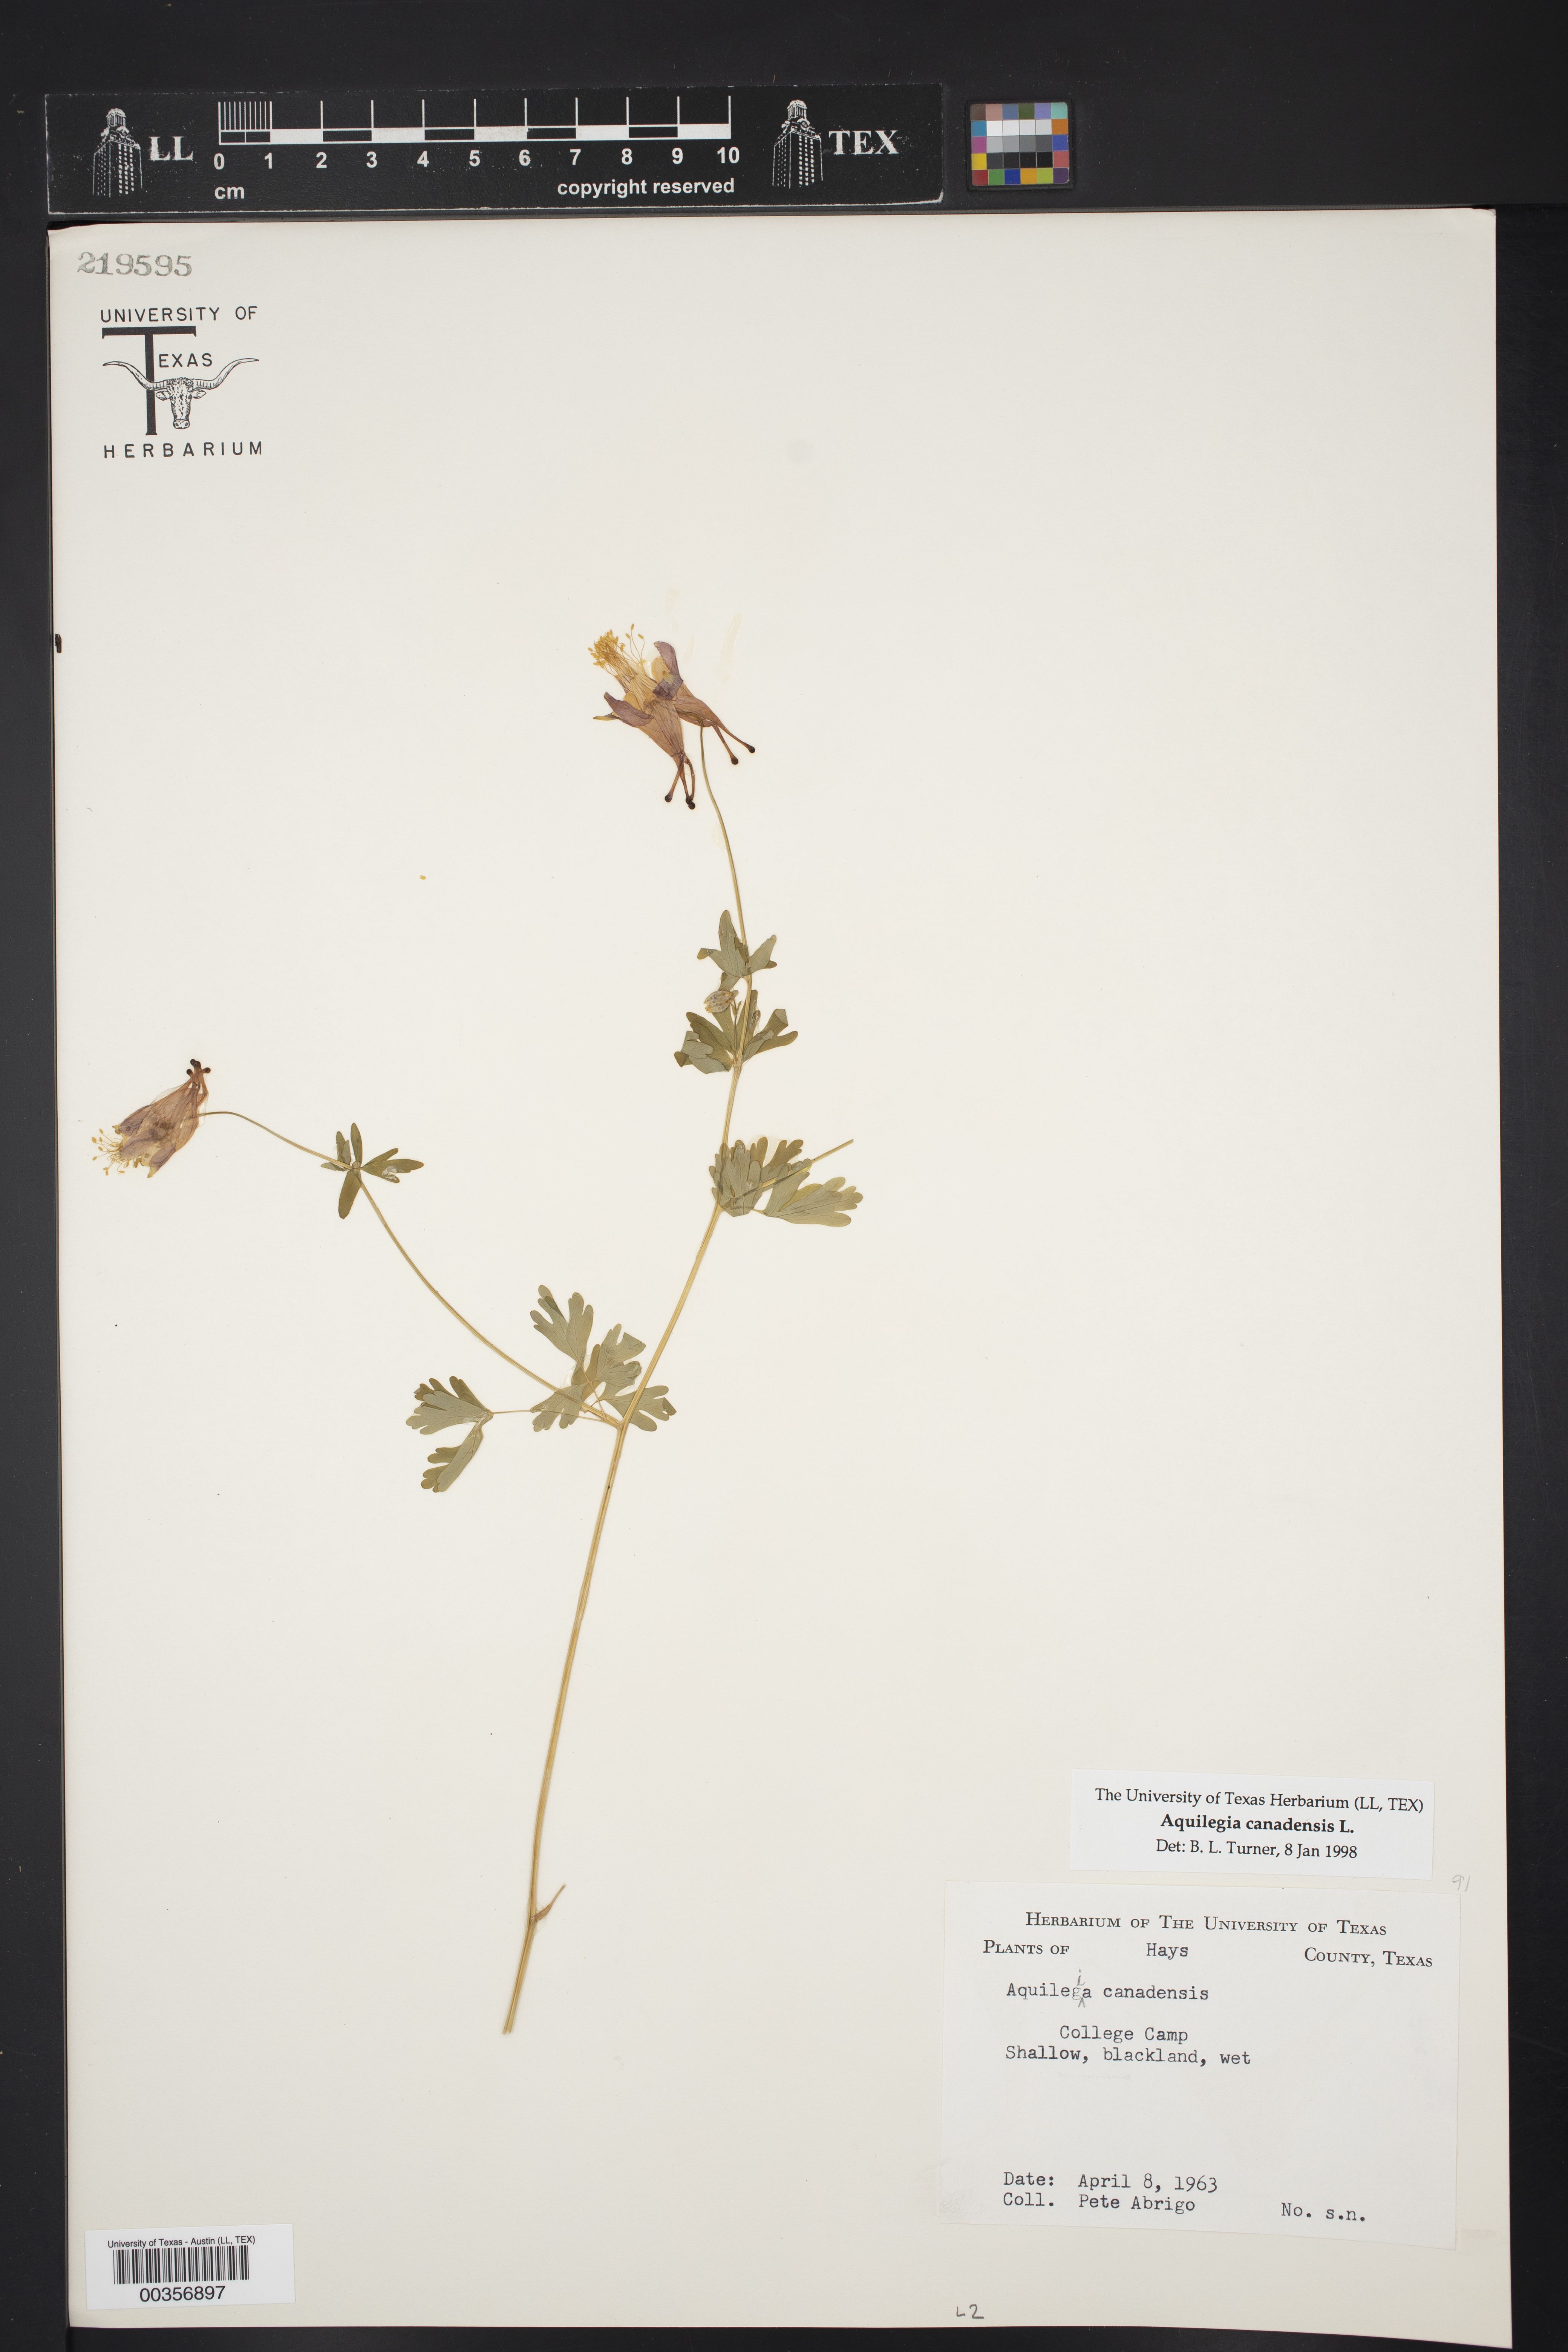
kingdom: Plantae
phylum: Tracheophyta
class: Magnoliopsida
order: Ranunculales
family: Ranunculaceae
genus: Aquilegia
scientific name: Aquilegia canadensis
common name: American columbine
